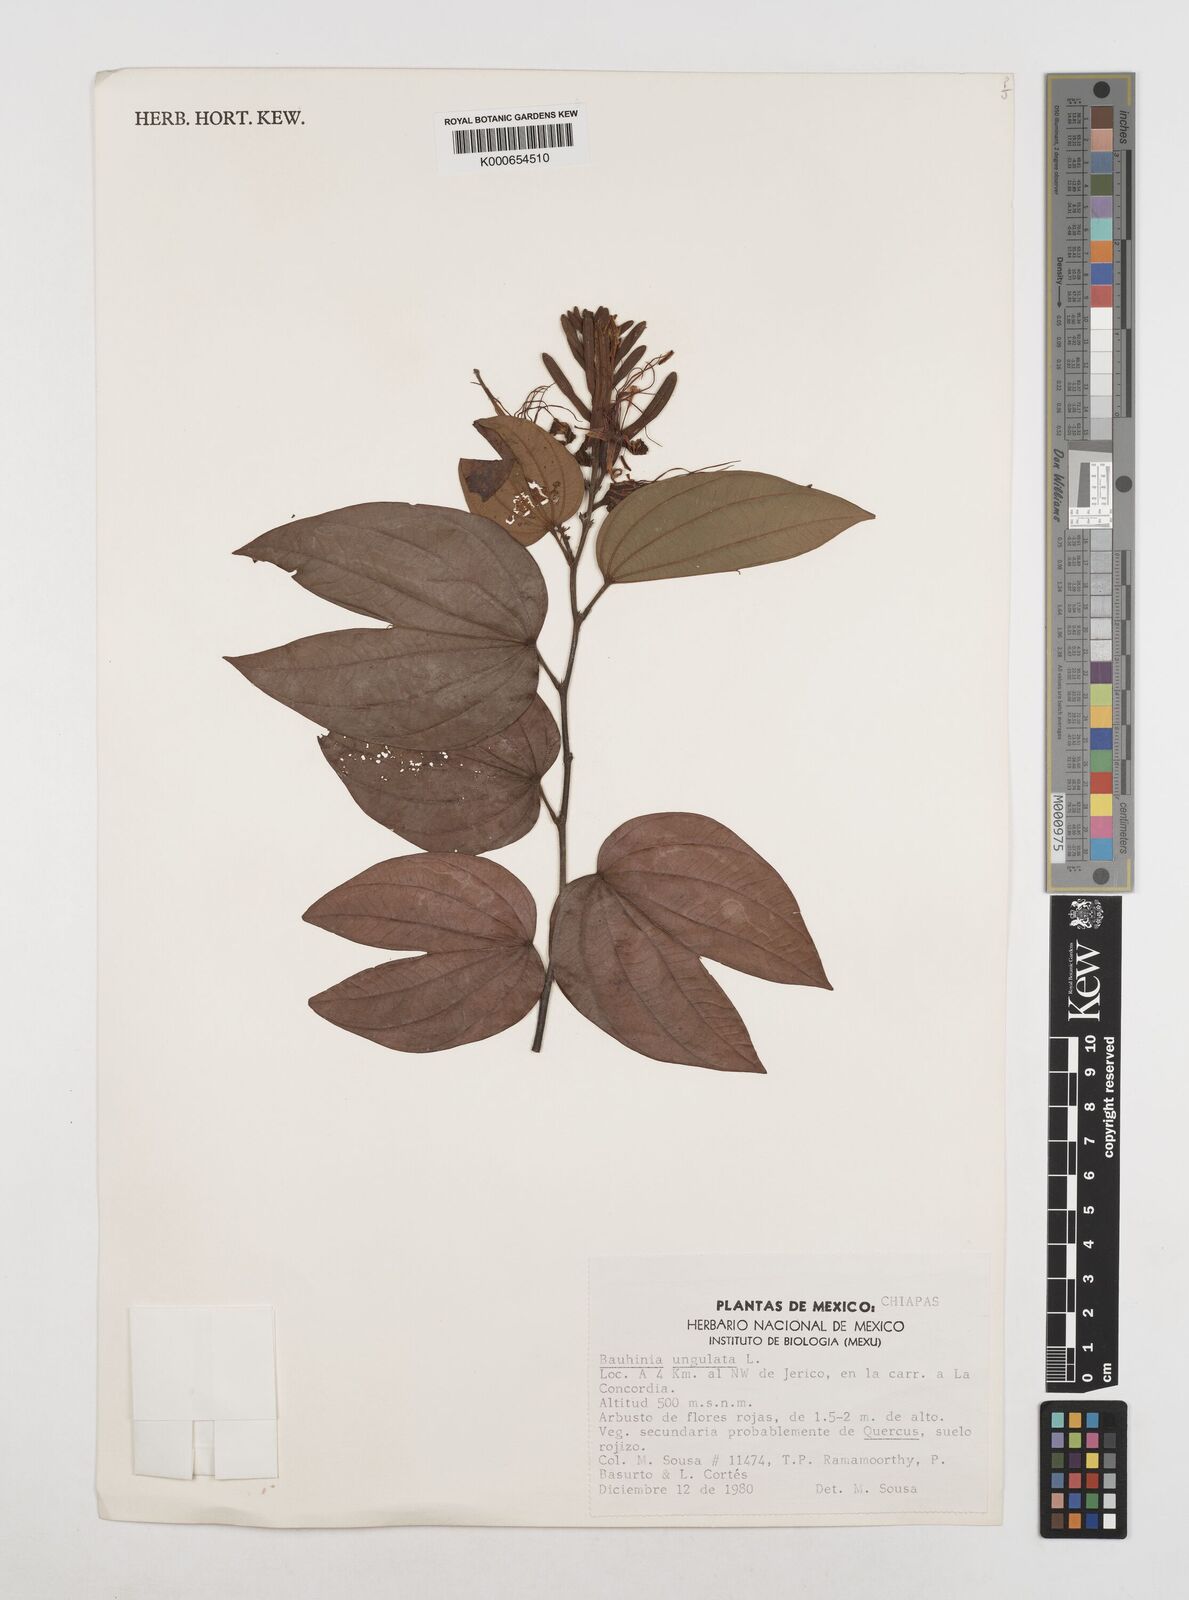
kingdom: Plantae
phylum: Tracheophyta
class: Magnoliopsida
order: Fabales
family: Fabaceae
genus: Bauhinia
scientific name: Bauhinia ungulata
